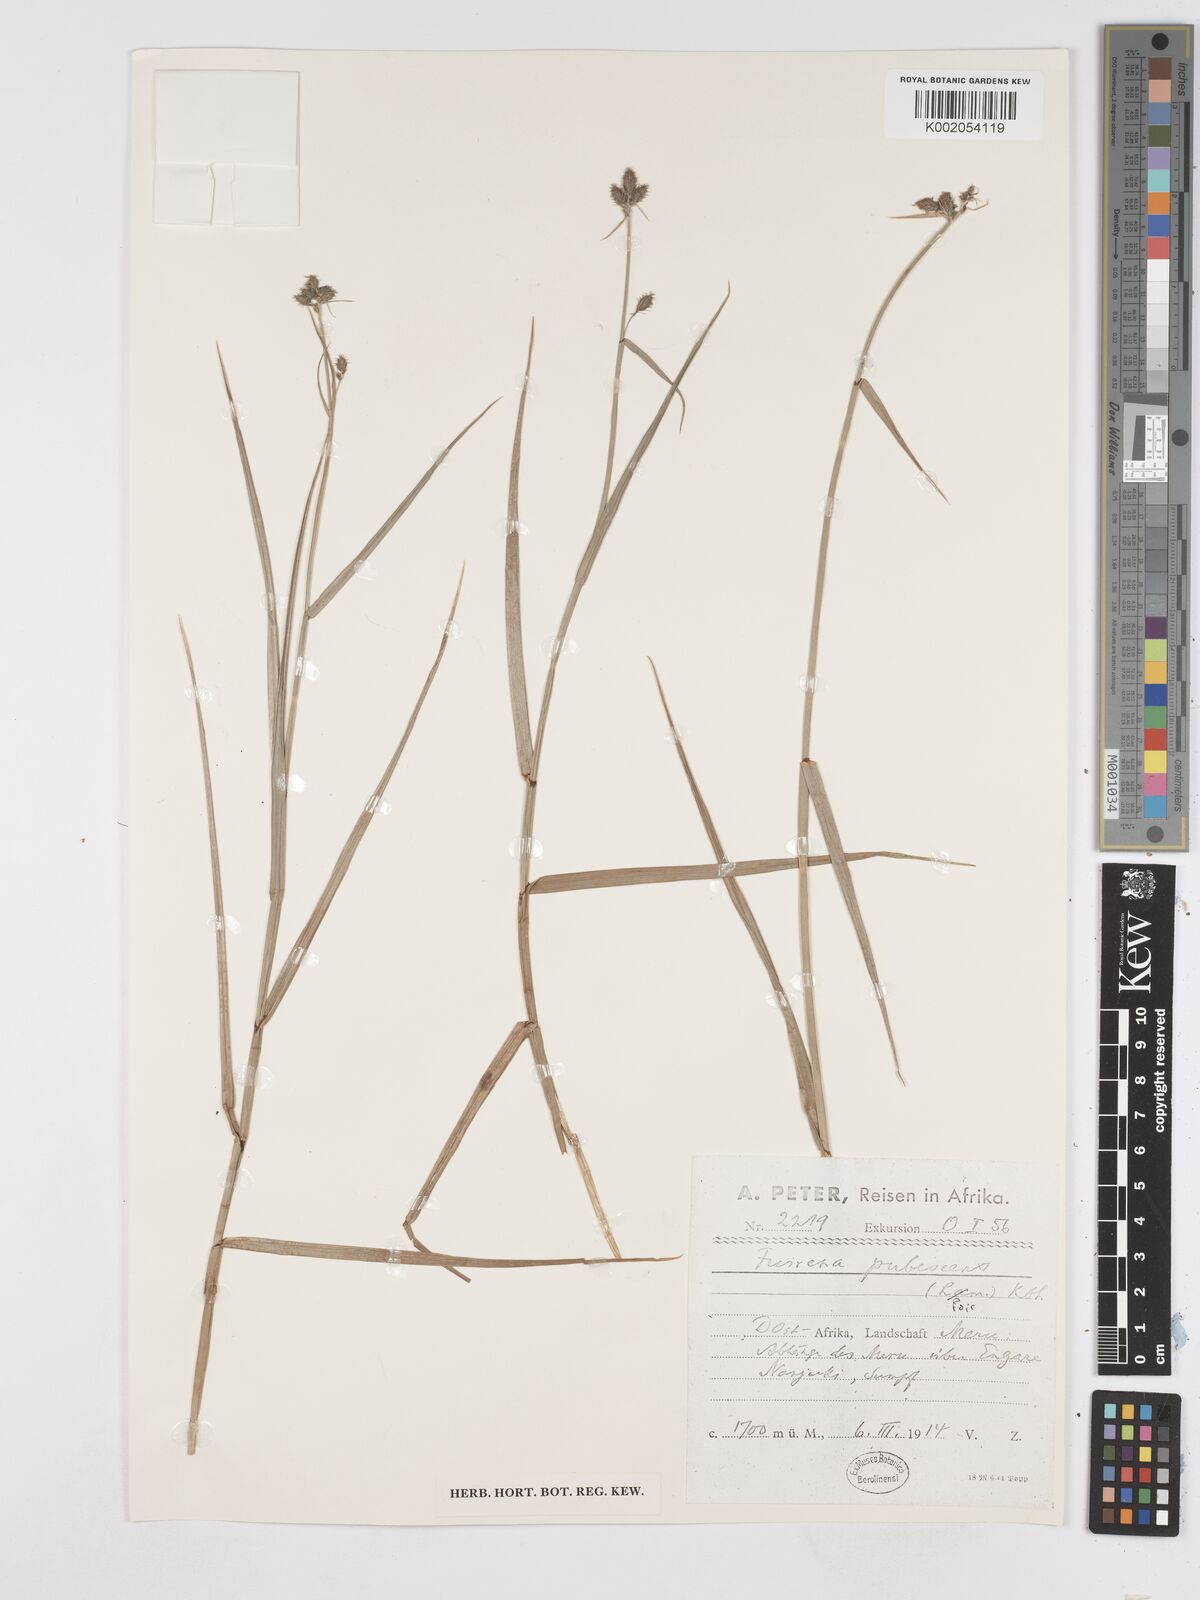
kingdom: Plantae
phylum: Tracheophyta
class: Liliopsida
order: Poales
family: Cyperaceae
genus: Fuirena
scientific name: Fuirena pubescens
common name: Hairy sedge
